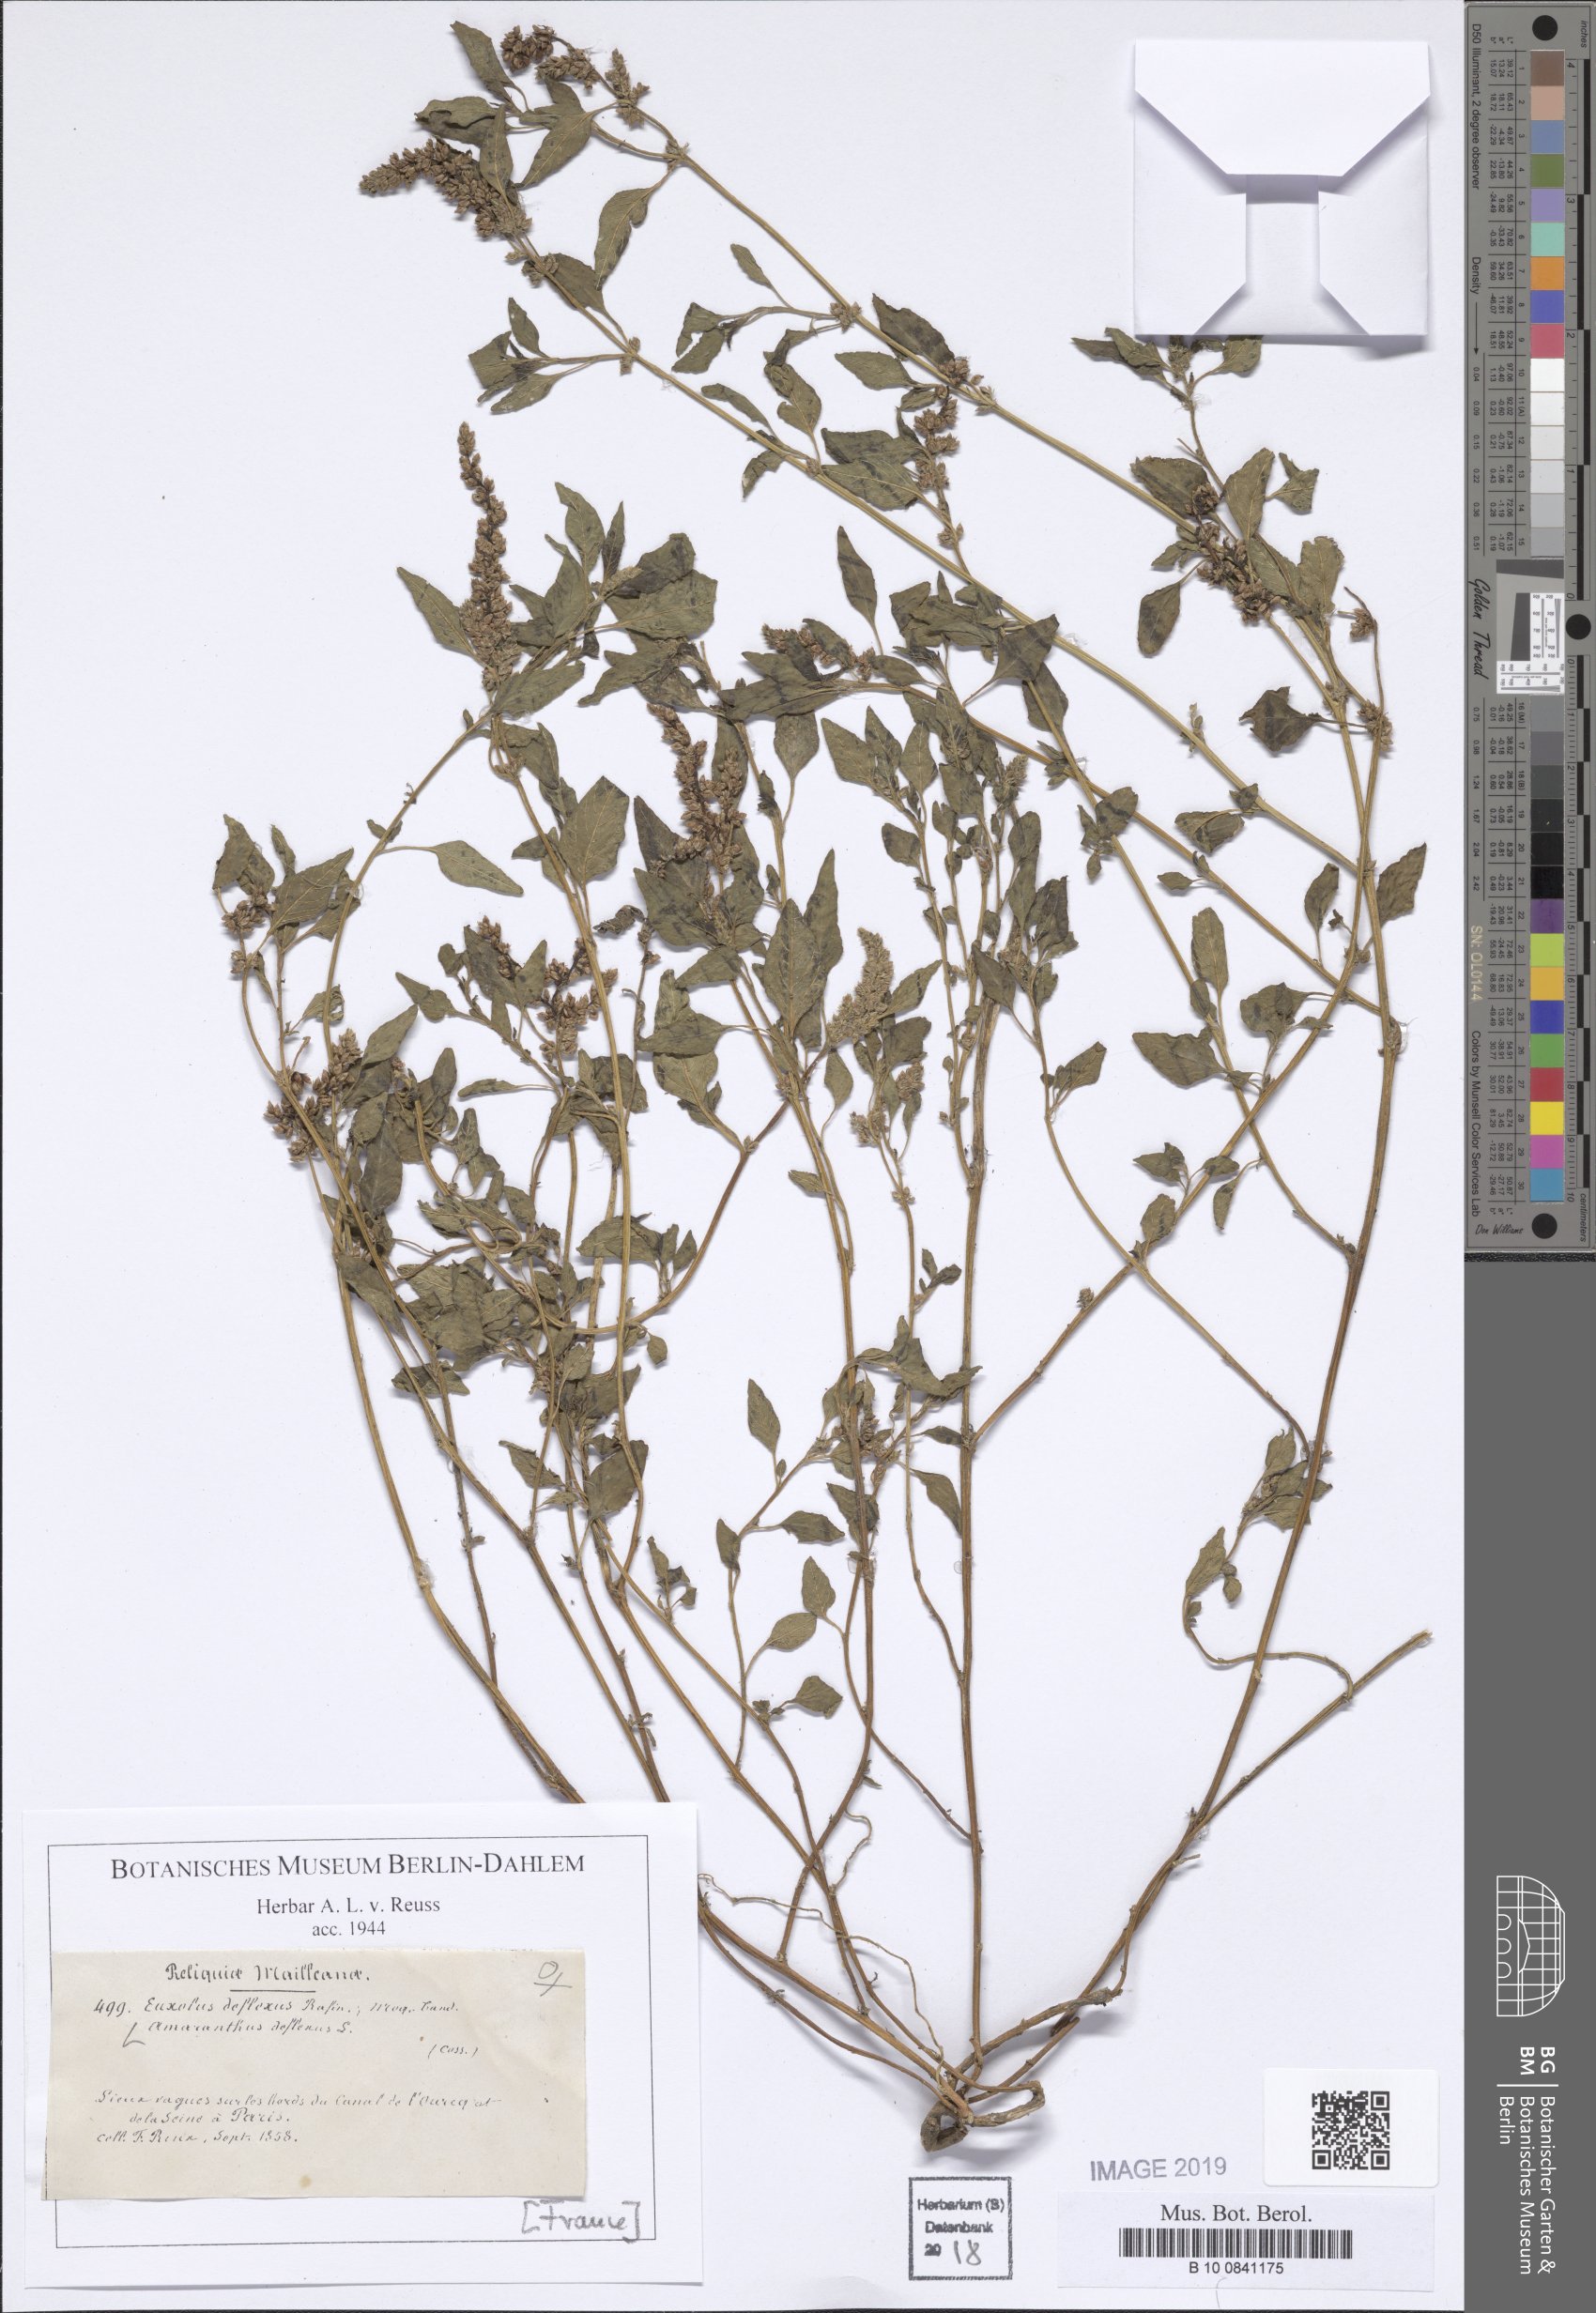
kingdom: Plantae
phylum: Tracheophyta
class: Magnoliopsida
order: Caryophyllales
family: Amaranthaceae
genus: Amaranthus
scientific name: Amaranthus deflexus
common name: Perennial pigweed
